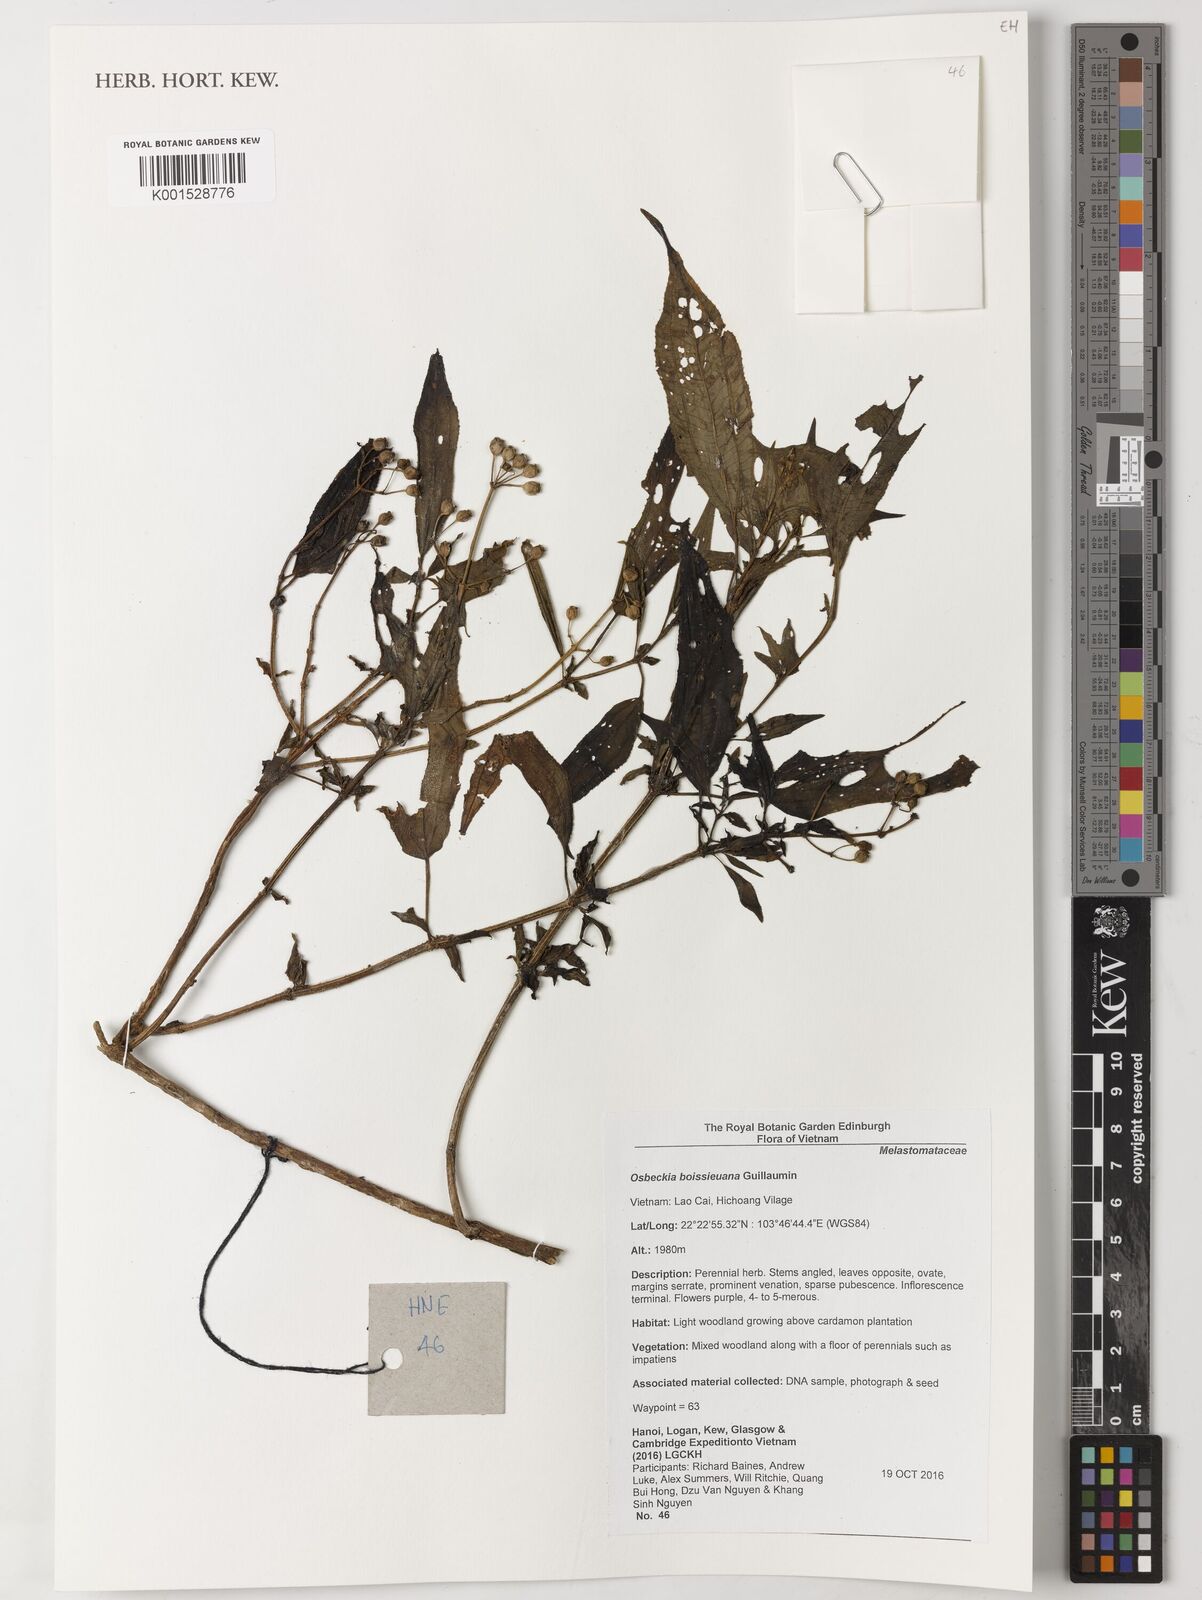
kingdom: Plantae
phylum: Tracheophyta
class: Magnoliopsida
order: Myrtales
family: Melastomataceae
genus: Osbeckia
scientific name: Osbeckia chinensis
